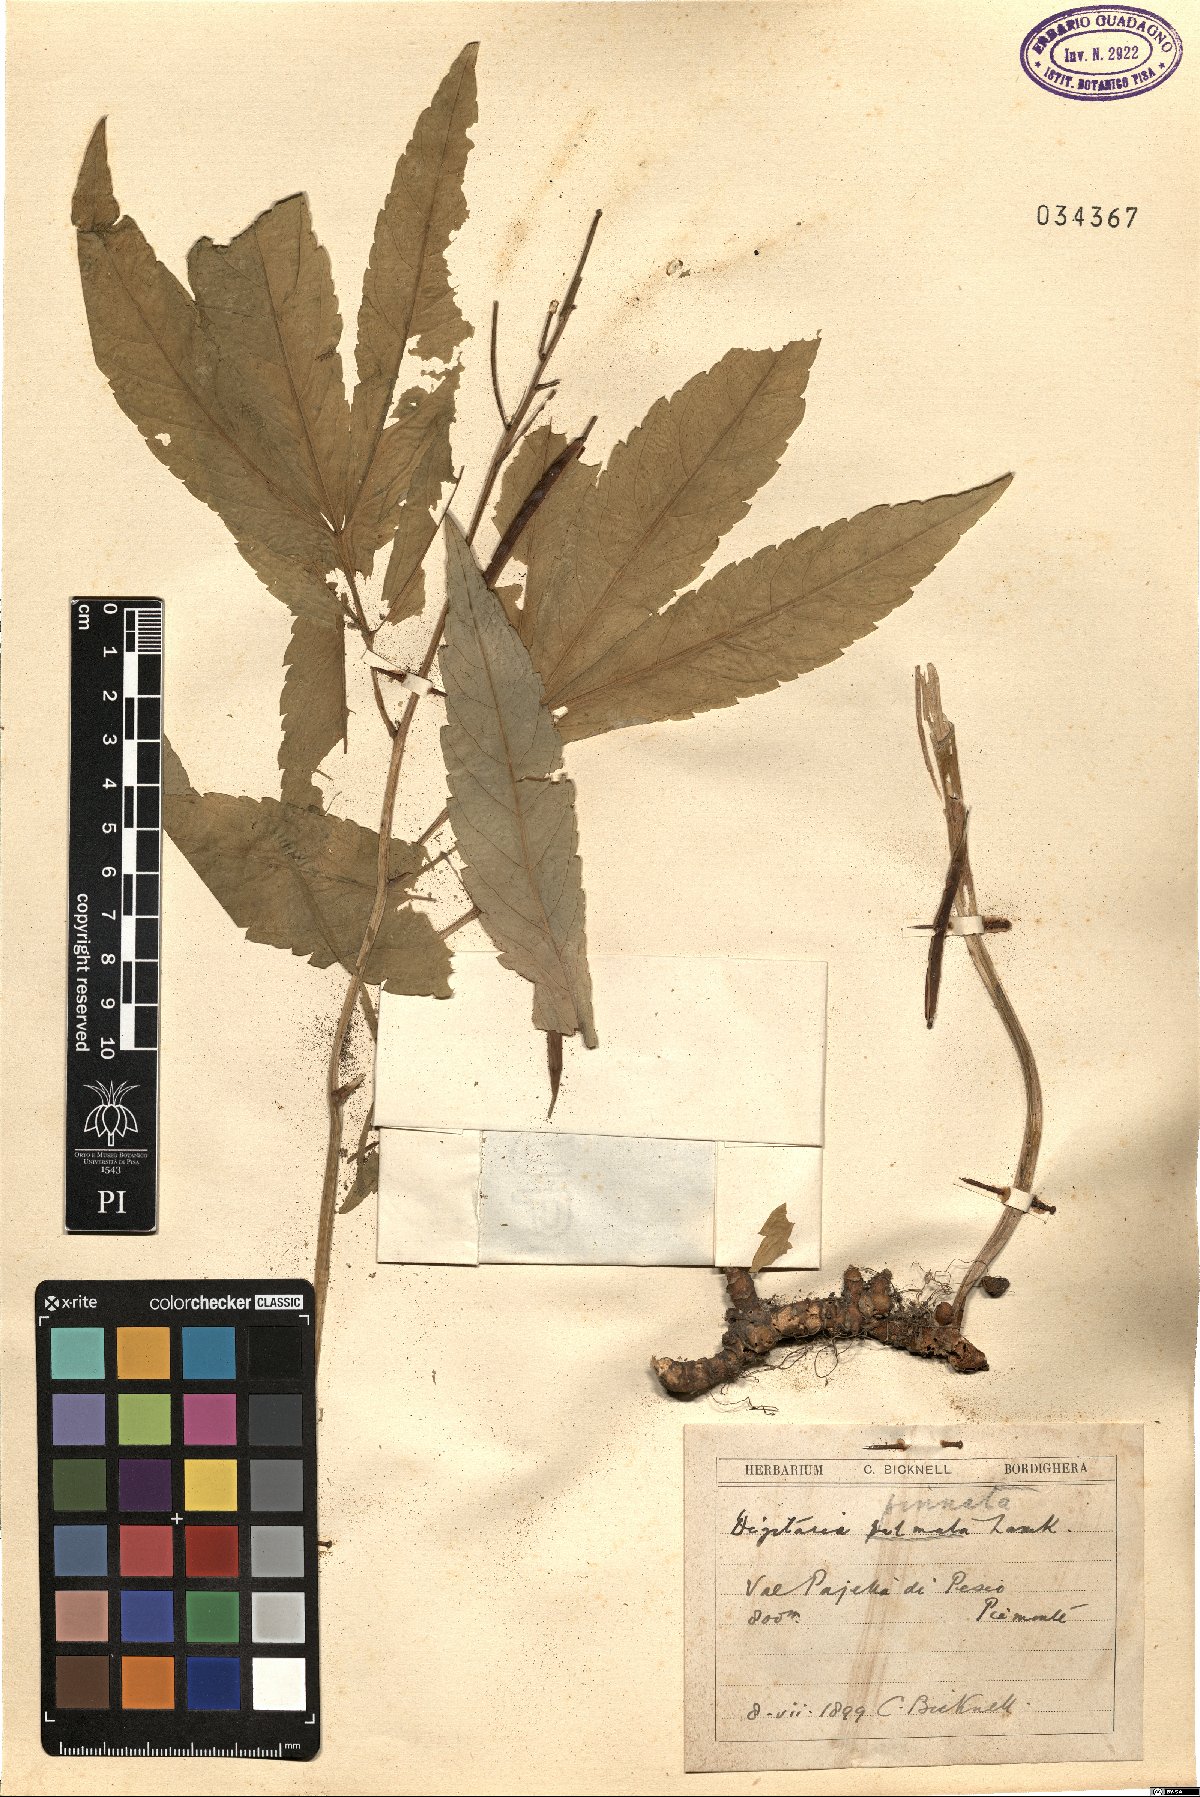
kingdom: Plantae
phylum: Tracheophyta
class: Magnoliopsida
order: Brassicales
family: Brassicaceae
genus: Cardamine
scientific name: Cardamine heptaphylla
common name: Pinnate coralroot
